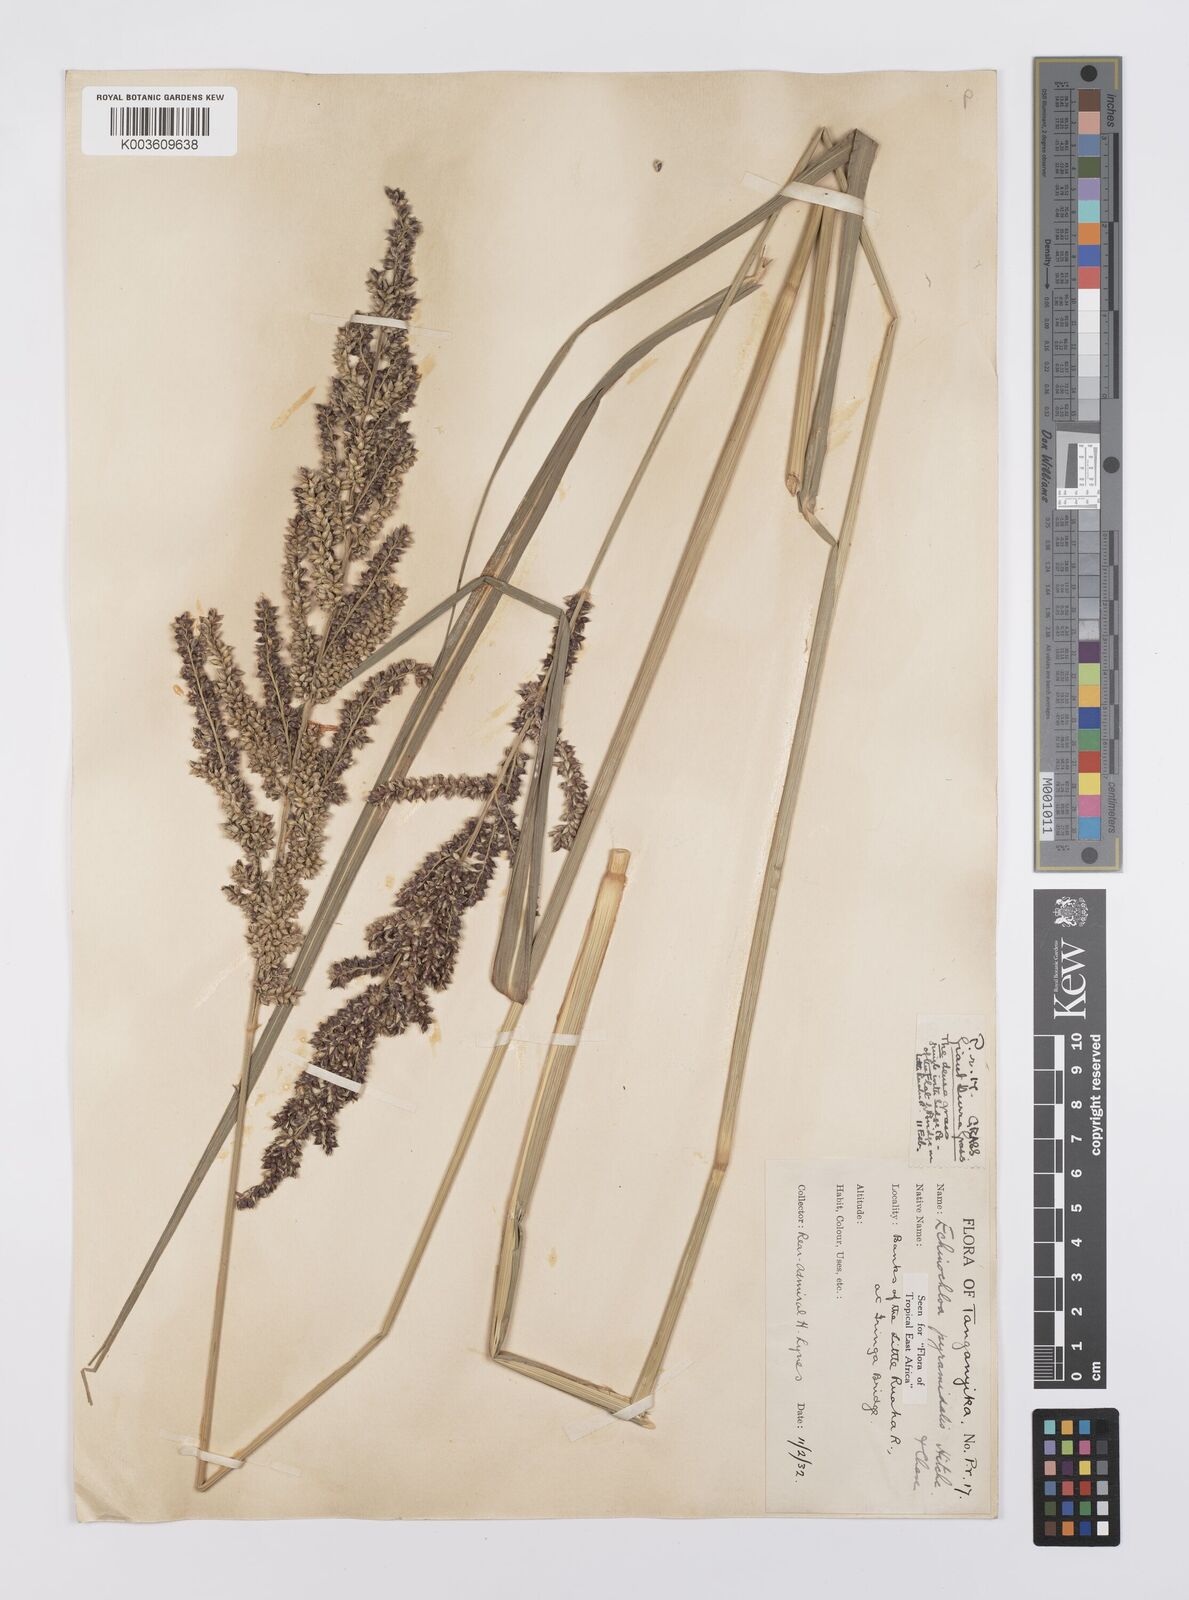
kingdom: Plantae
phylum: Tracheophyta
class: Liliopsida
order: Poales
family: Poaceae
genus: Echinochloa
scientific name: Echinochloa pyramidalis
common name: Antelope grass
